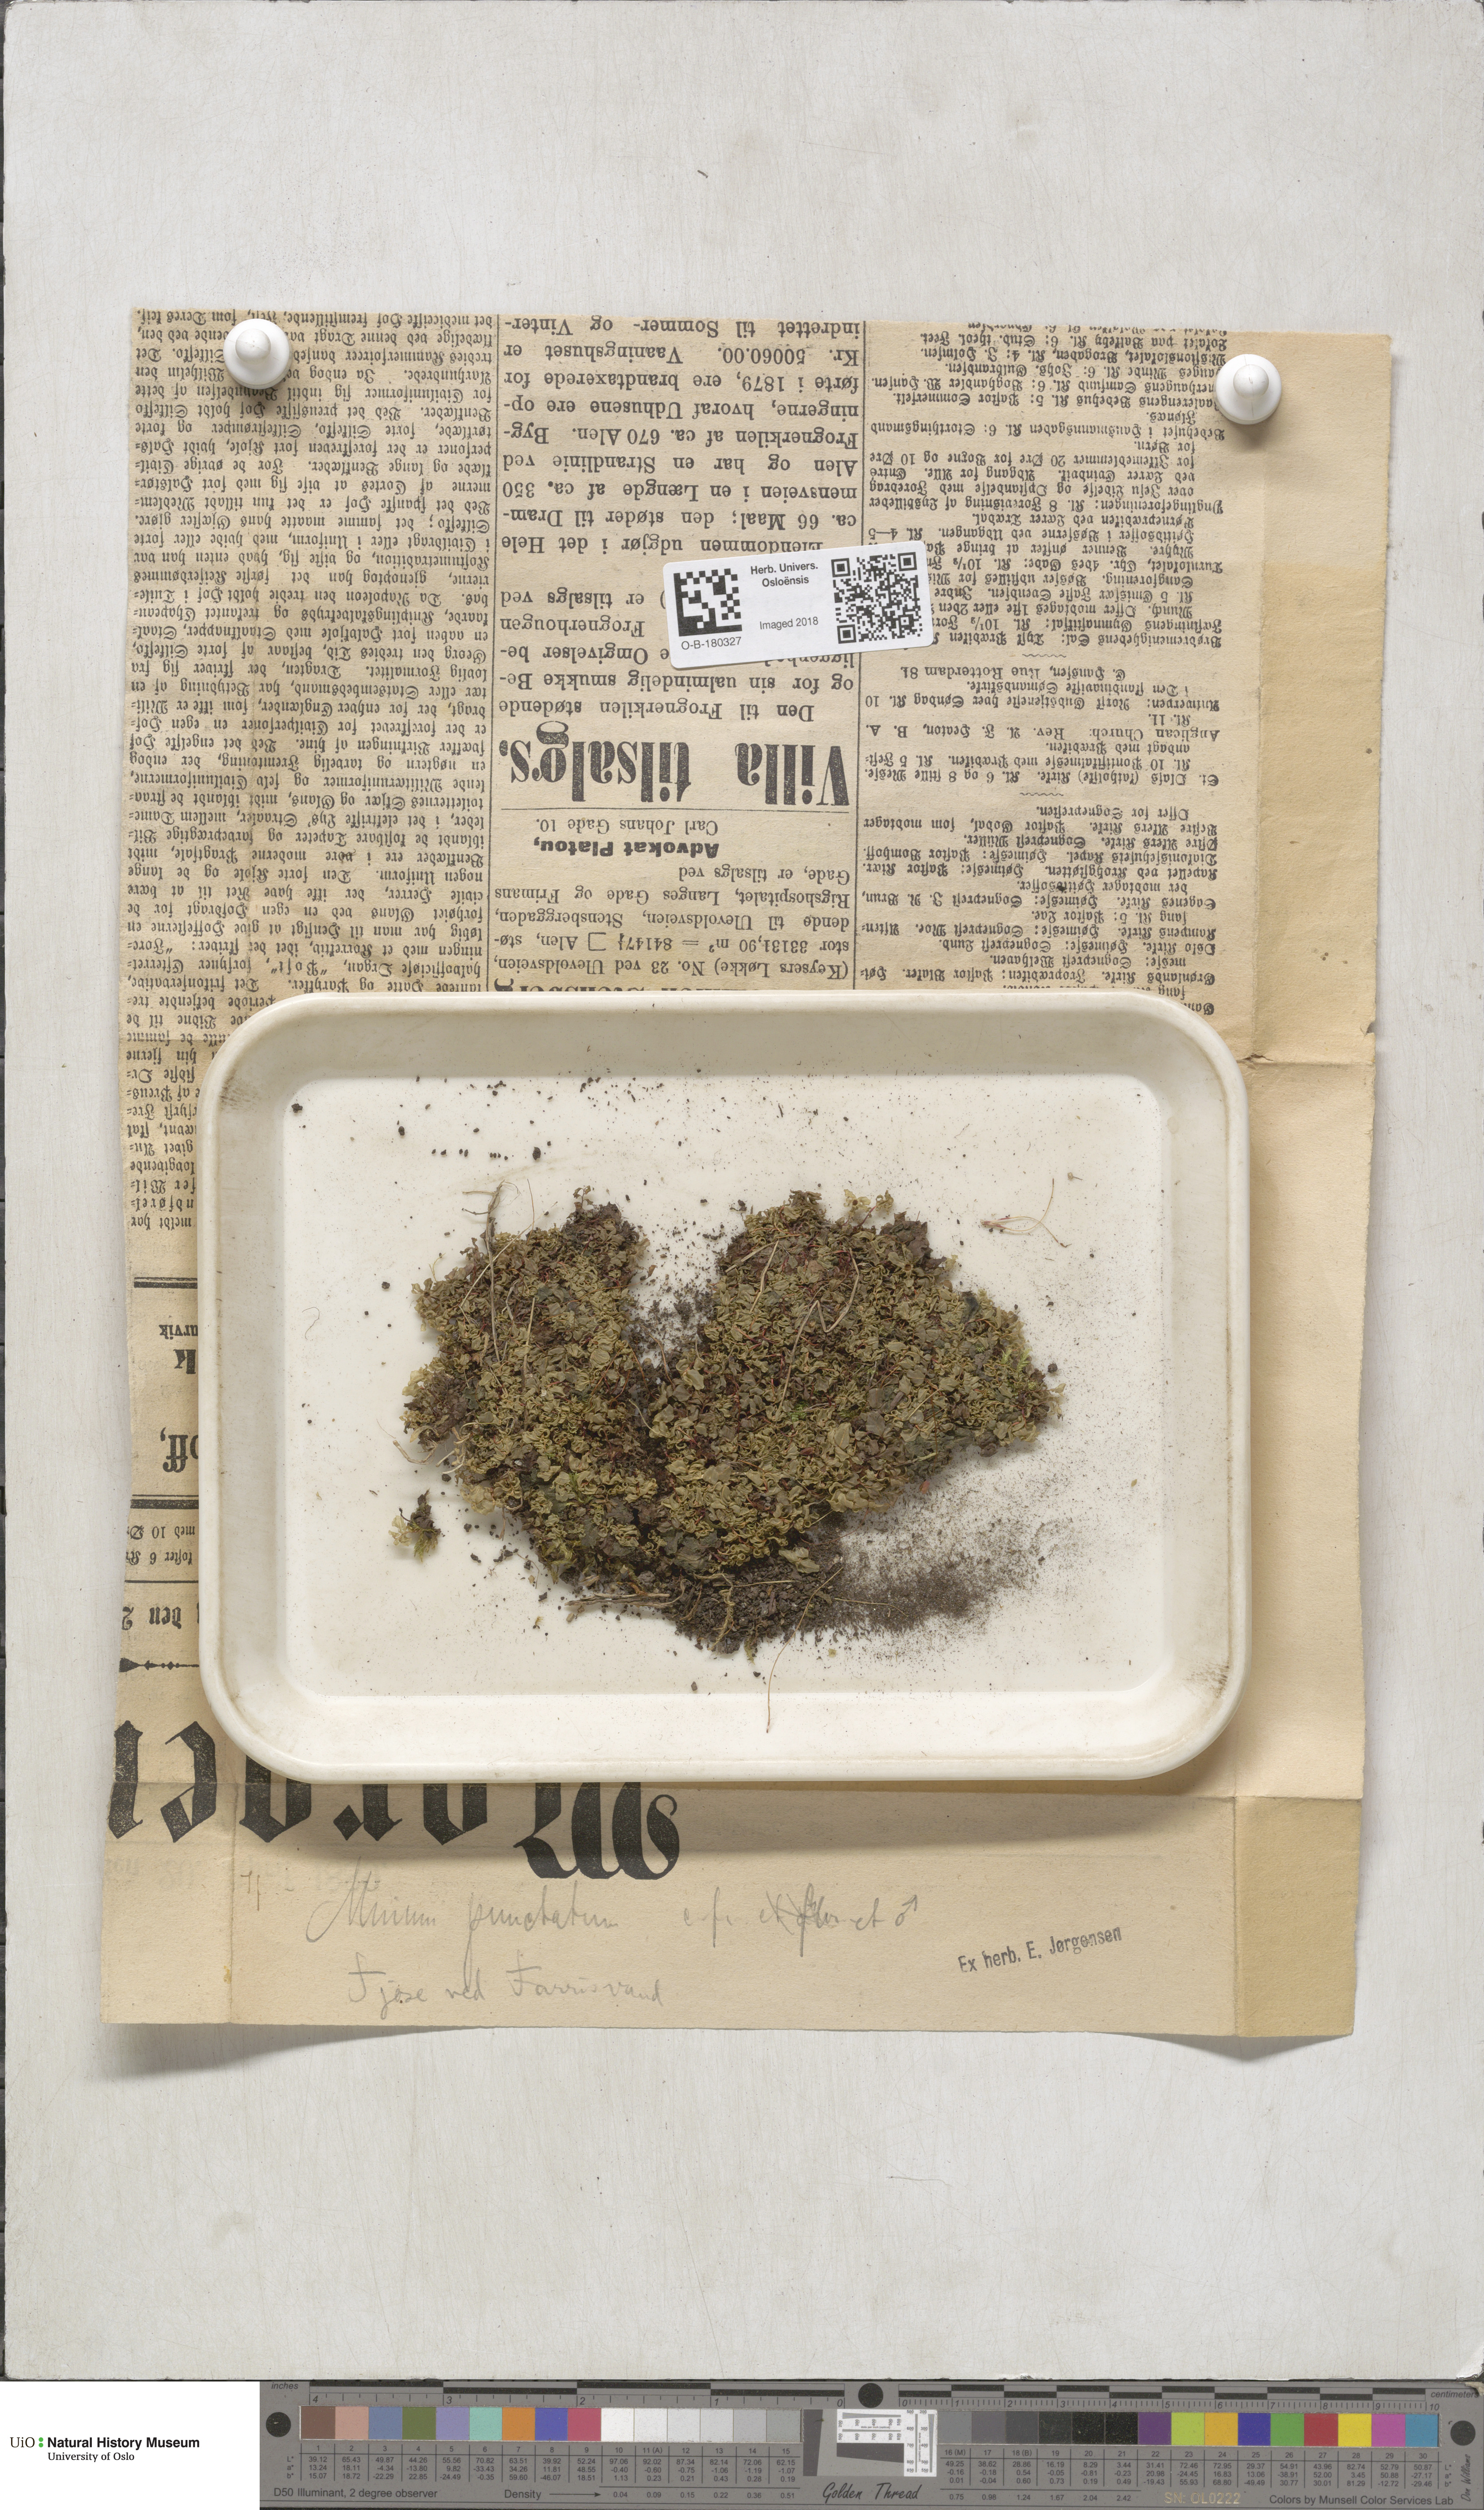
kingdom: Plantae
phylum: Bryophyta
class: Bryopsida
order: Bryales
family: Mniaceae
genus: Rhizomnium
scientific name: Rhizomnium punctatum
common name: Dotted leafy moss
